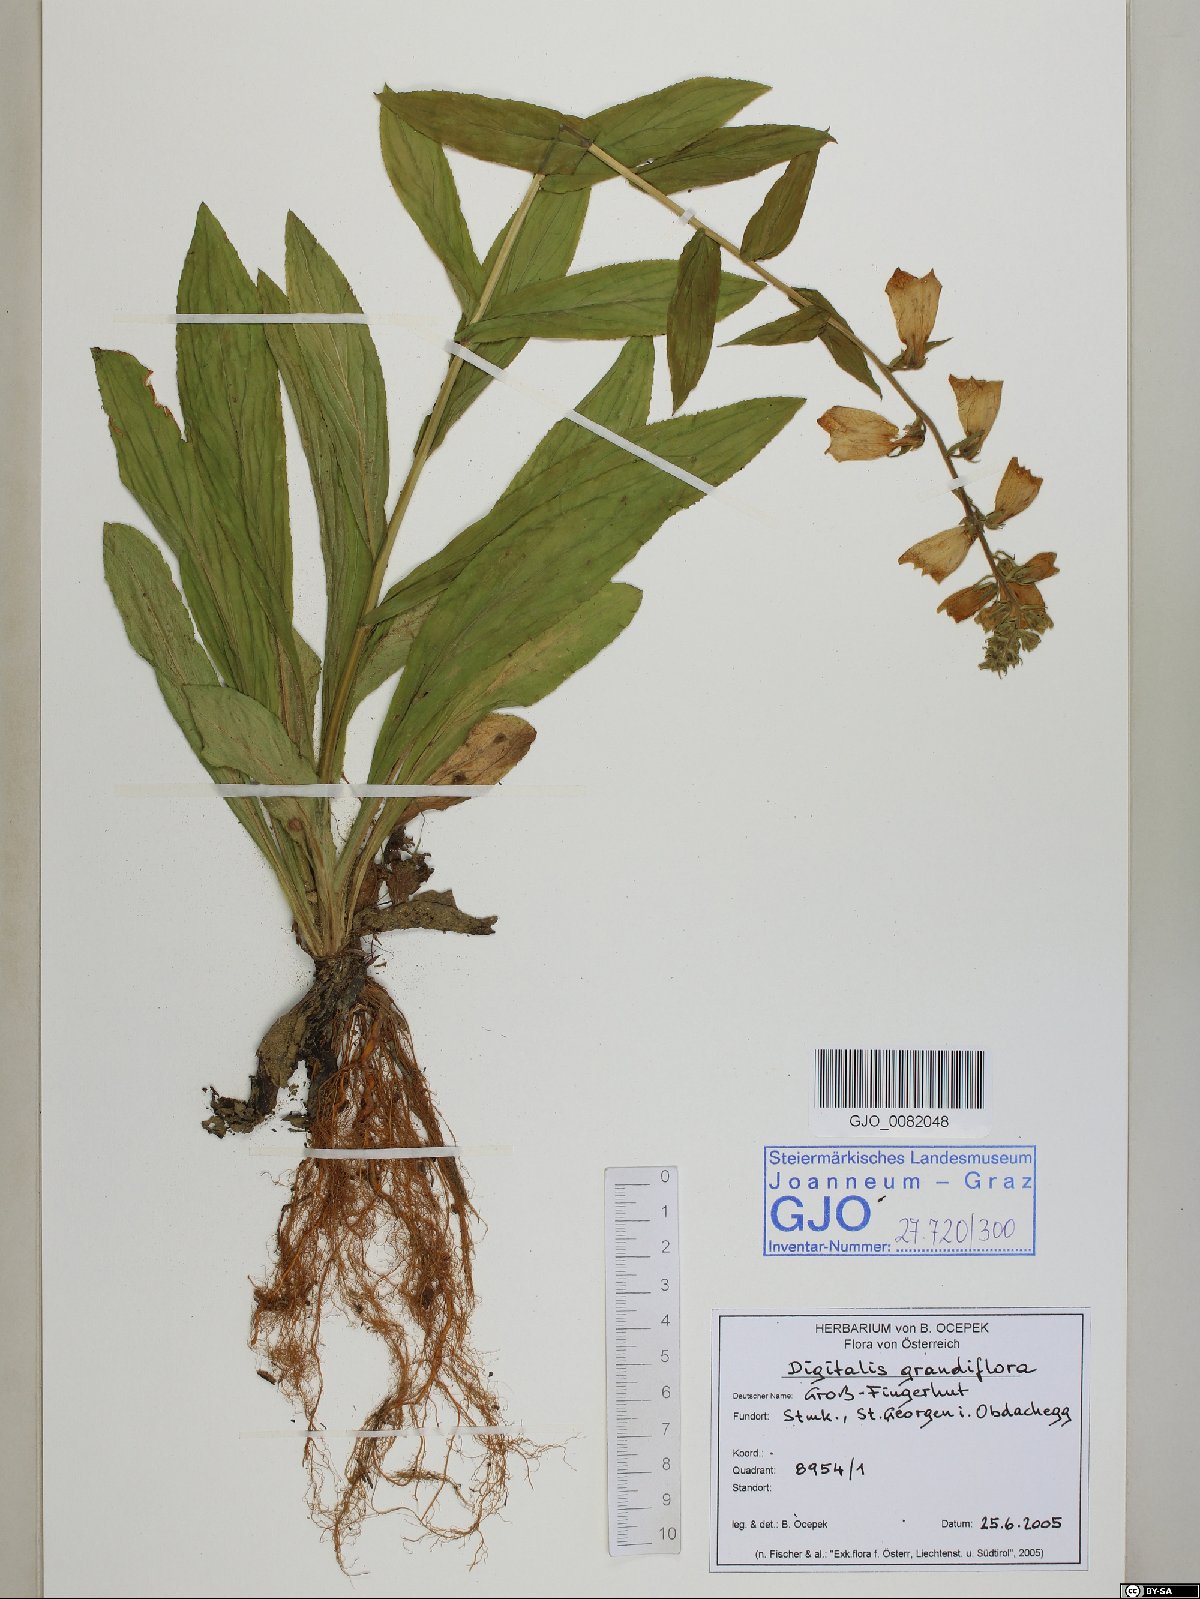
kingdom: Plantae
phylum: Tracheophyta
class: Magnoliopsida
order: Lamiales
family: Plantaginaceae
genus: Digitalis
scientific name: Digitalis grandiflora
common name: Yellow foxglove
